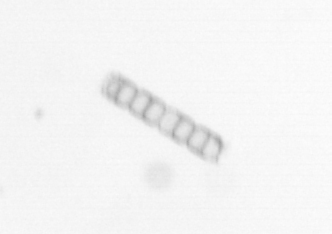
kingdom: Chromista
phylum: Ochrophyta
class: Bacillariophyceae
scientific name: Bacillariophyceae
